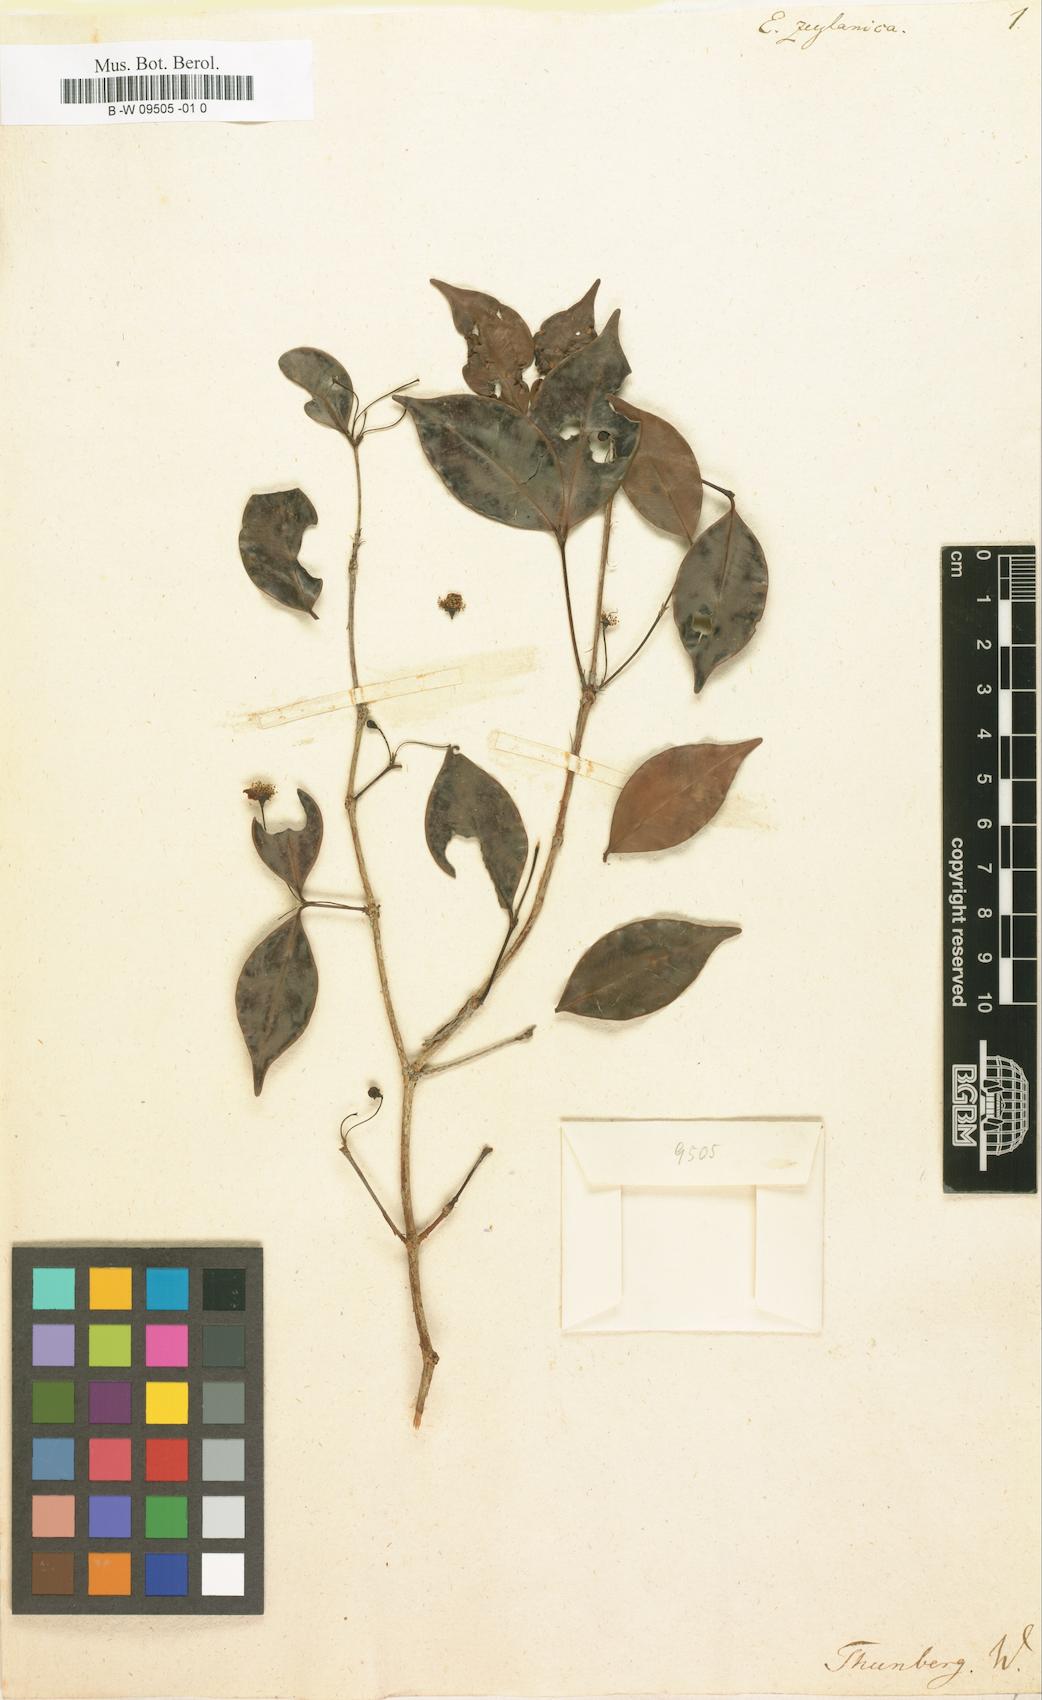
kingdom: Plantae
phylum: Tracheophyta
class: Magnoliopsida
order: Myrtales
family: Myrtaceae
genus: Eugenia
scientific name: Eugenia uniflora
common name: Surinam cherry
